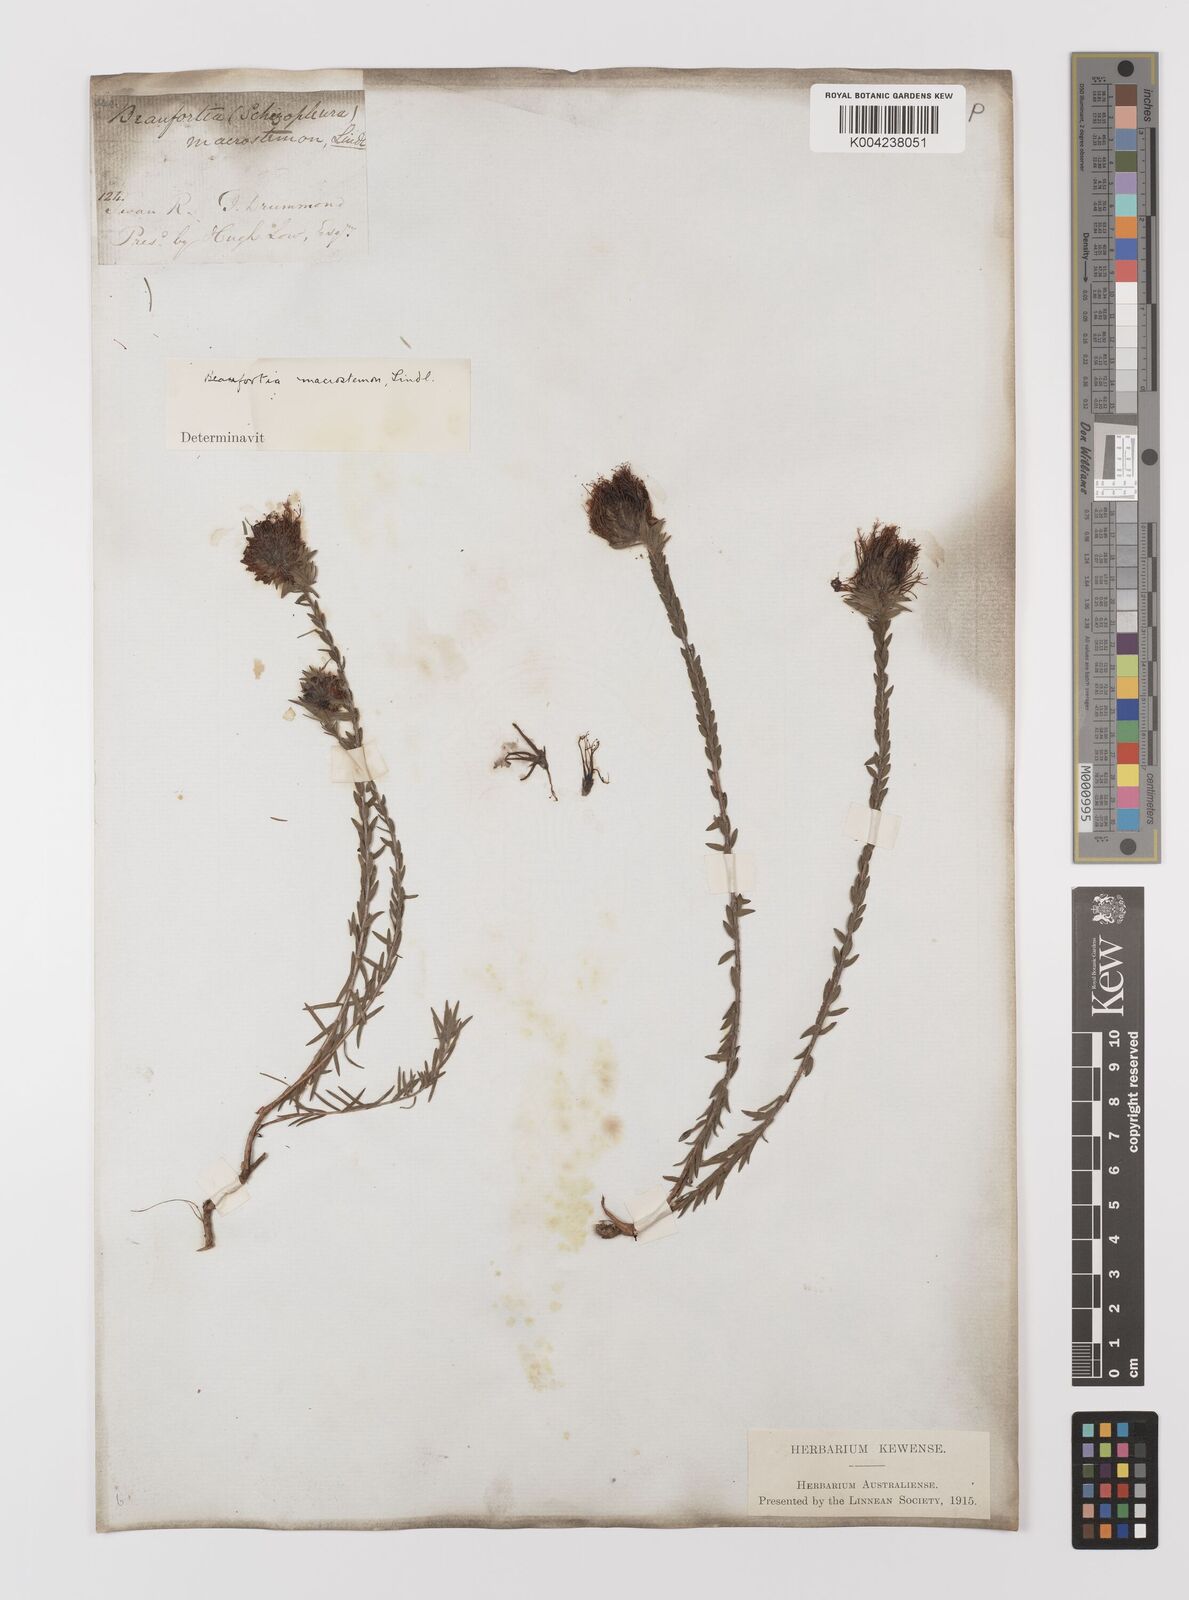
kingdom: Plantae
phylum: Tracheophyta
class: Magnoliopsida
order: Myrtales
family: Myrtaceae
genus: Melaleuca
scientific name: Melaleuca macrostemon
